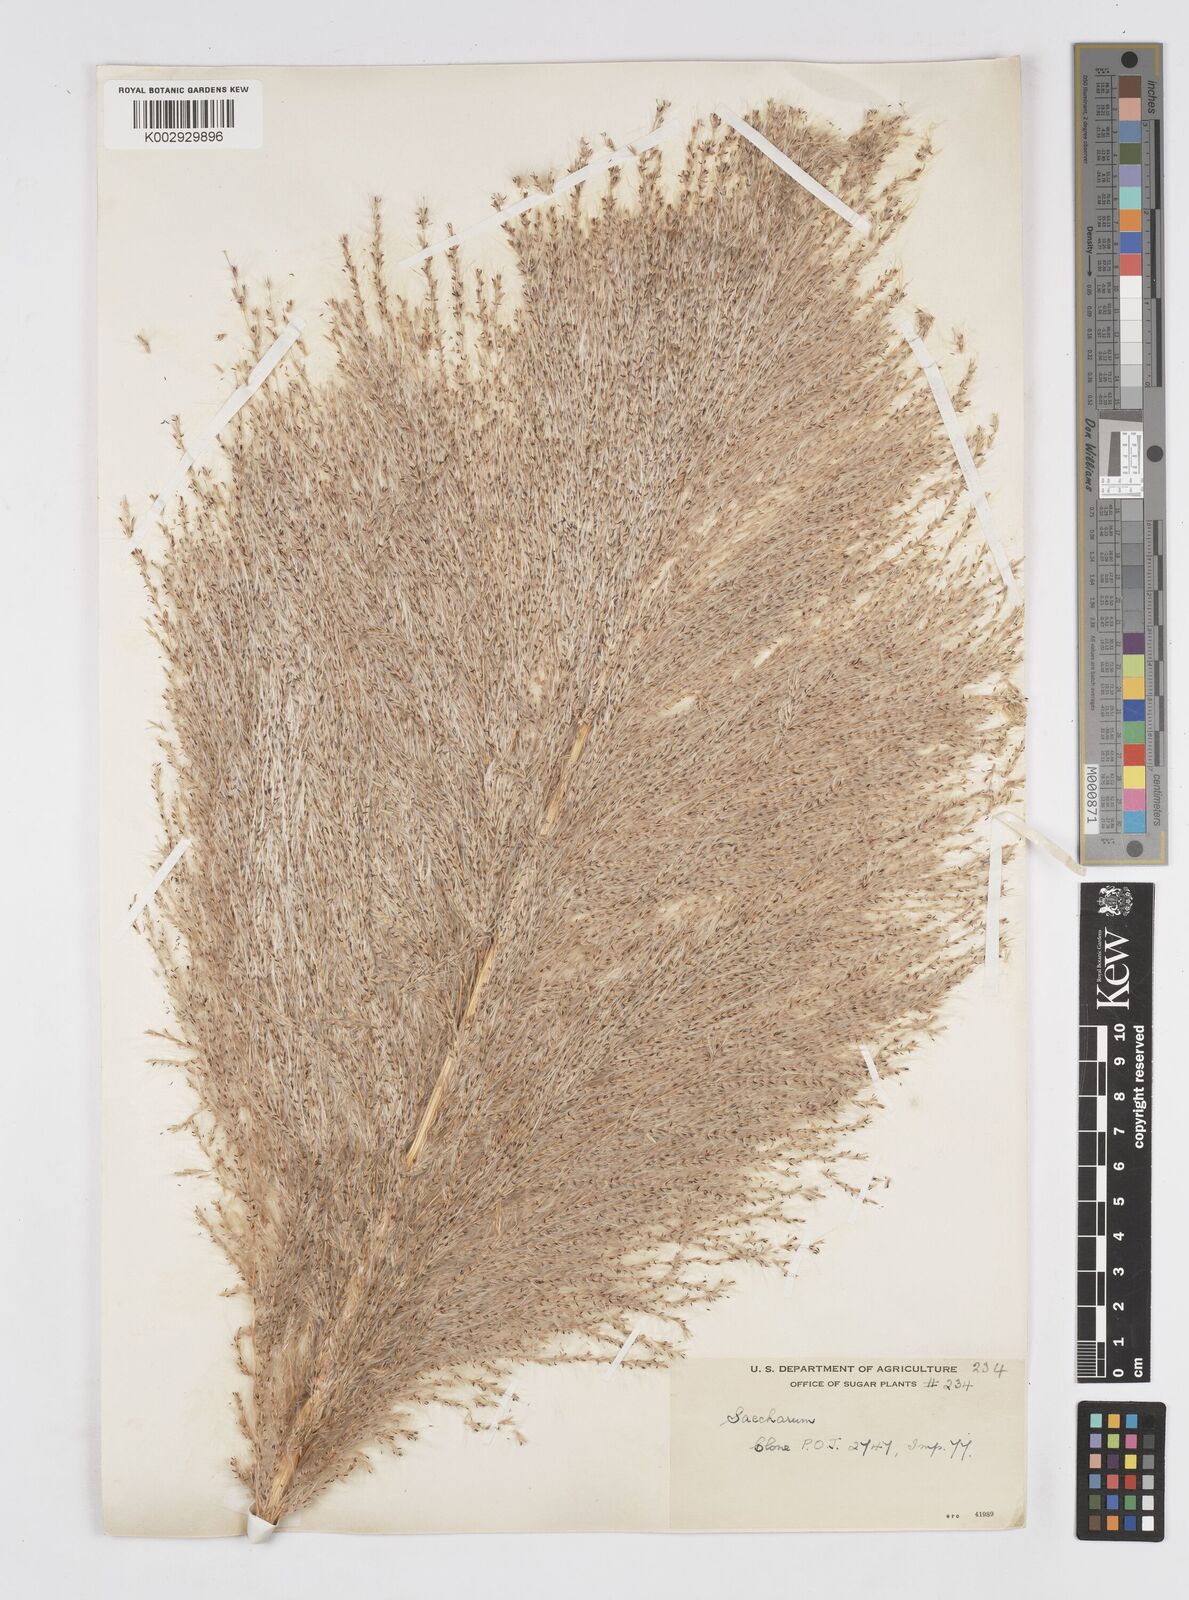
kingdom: Plantae
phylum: Tracheophyta
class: Liliopsida
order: Poales
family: Poaceae
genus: Saccharum
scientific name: Saccharum officinarum
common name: Sugarcane
